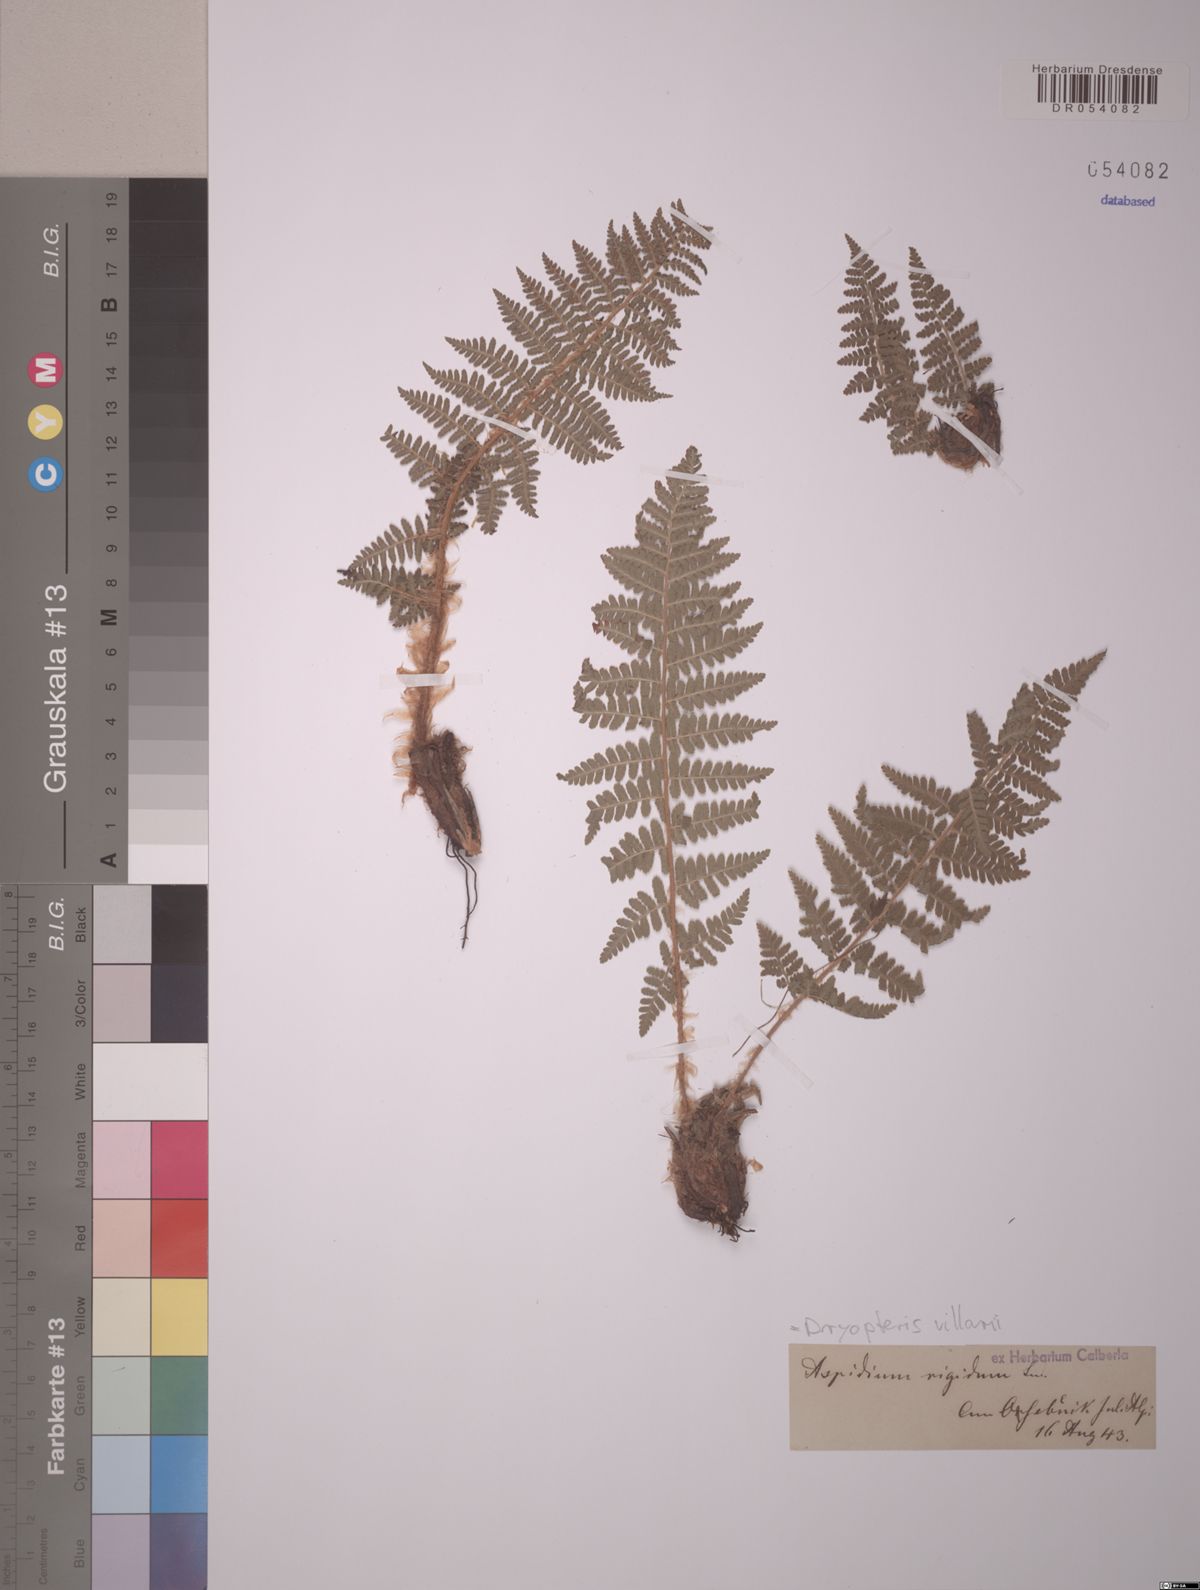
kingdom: Plantae
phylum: Tracheophyta
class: Polypodiopsida
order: Polypodiales
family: Dryopteridaceae
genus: Dryopteris
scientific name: Dryopteris villarii
